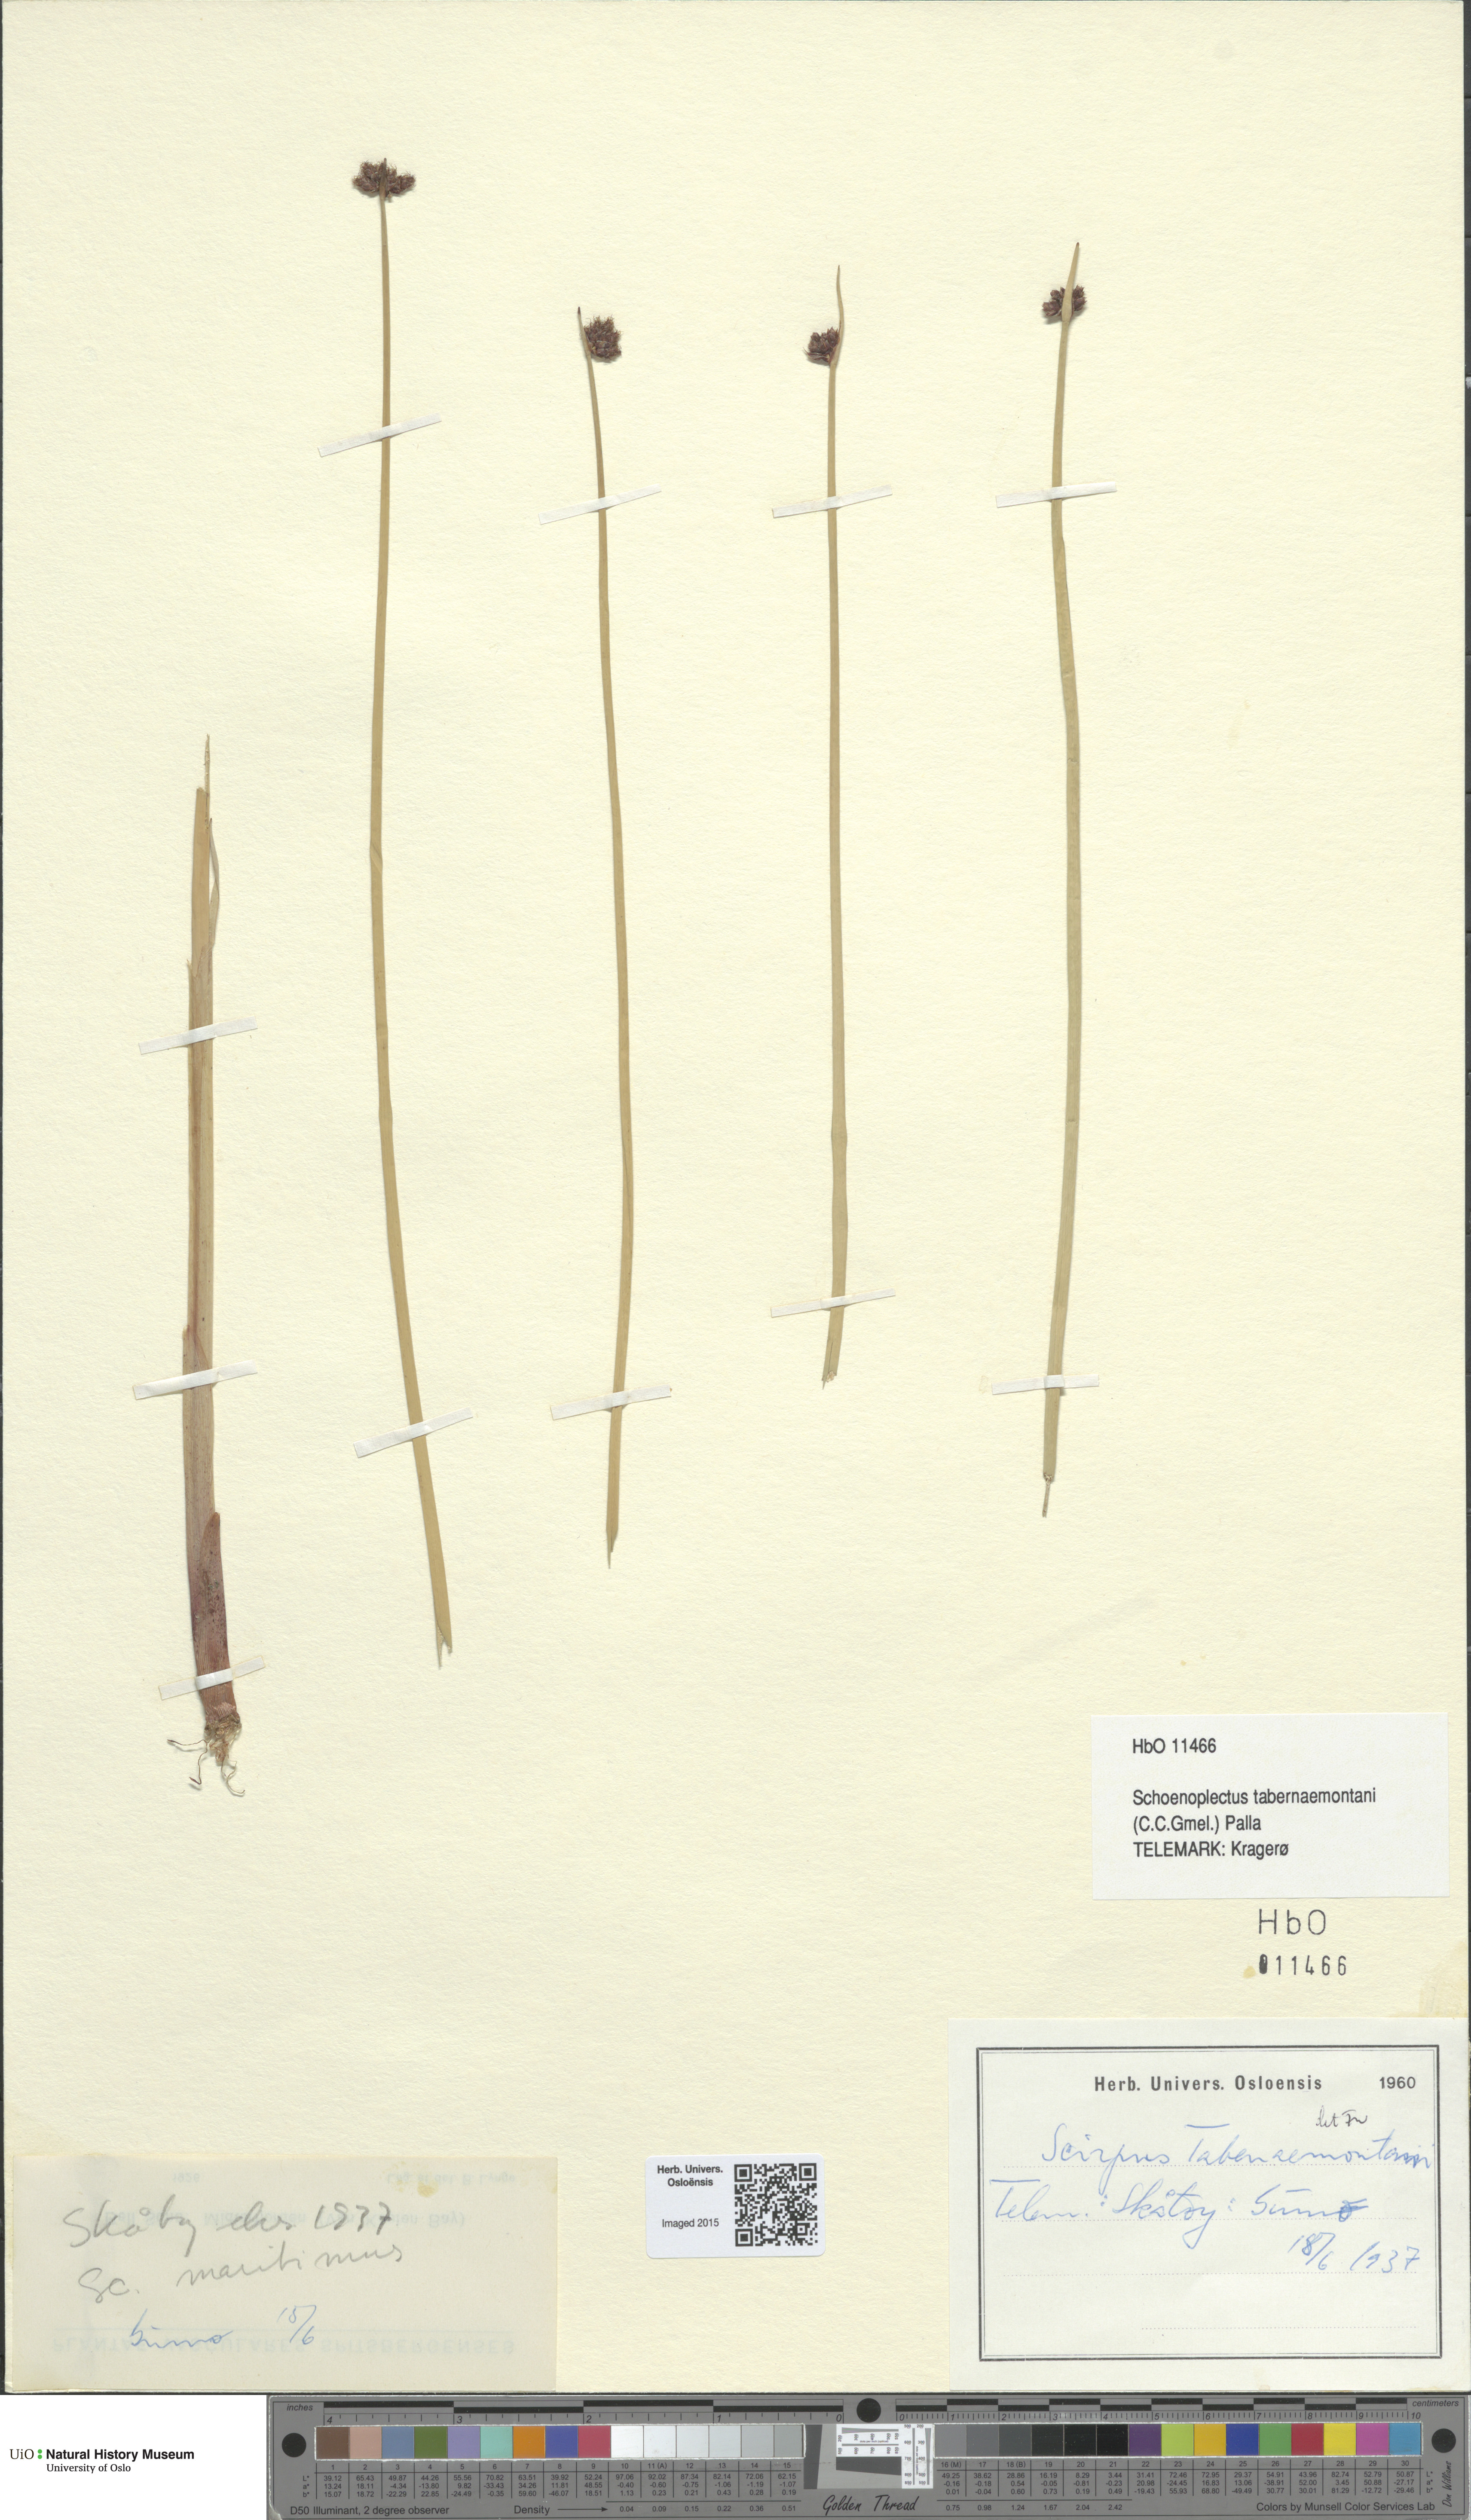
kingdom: Plantae
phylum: Tracheophyta
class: Liliopsida
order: Poales
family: Cyperaceae
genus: Schoenoplectus
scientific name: Schoenoplectus tabernaemontani
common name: Grey club-rush
